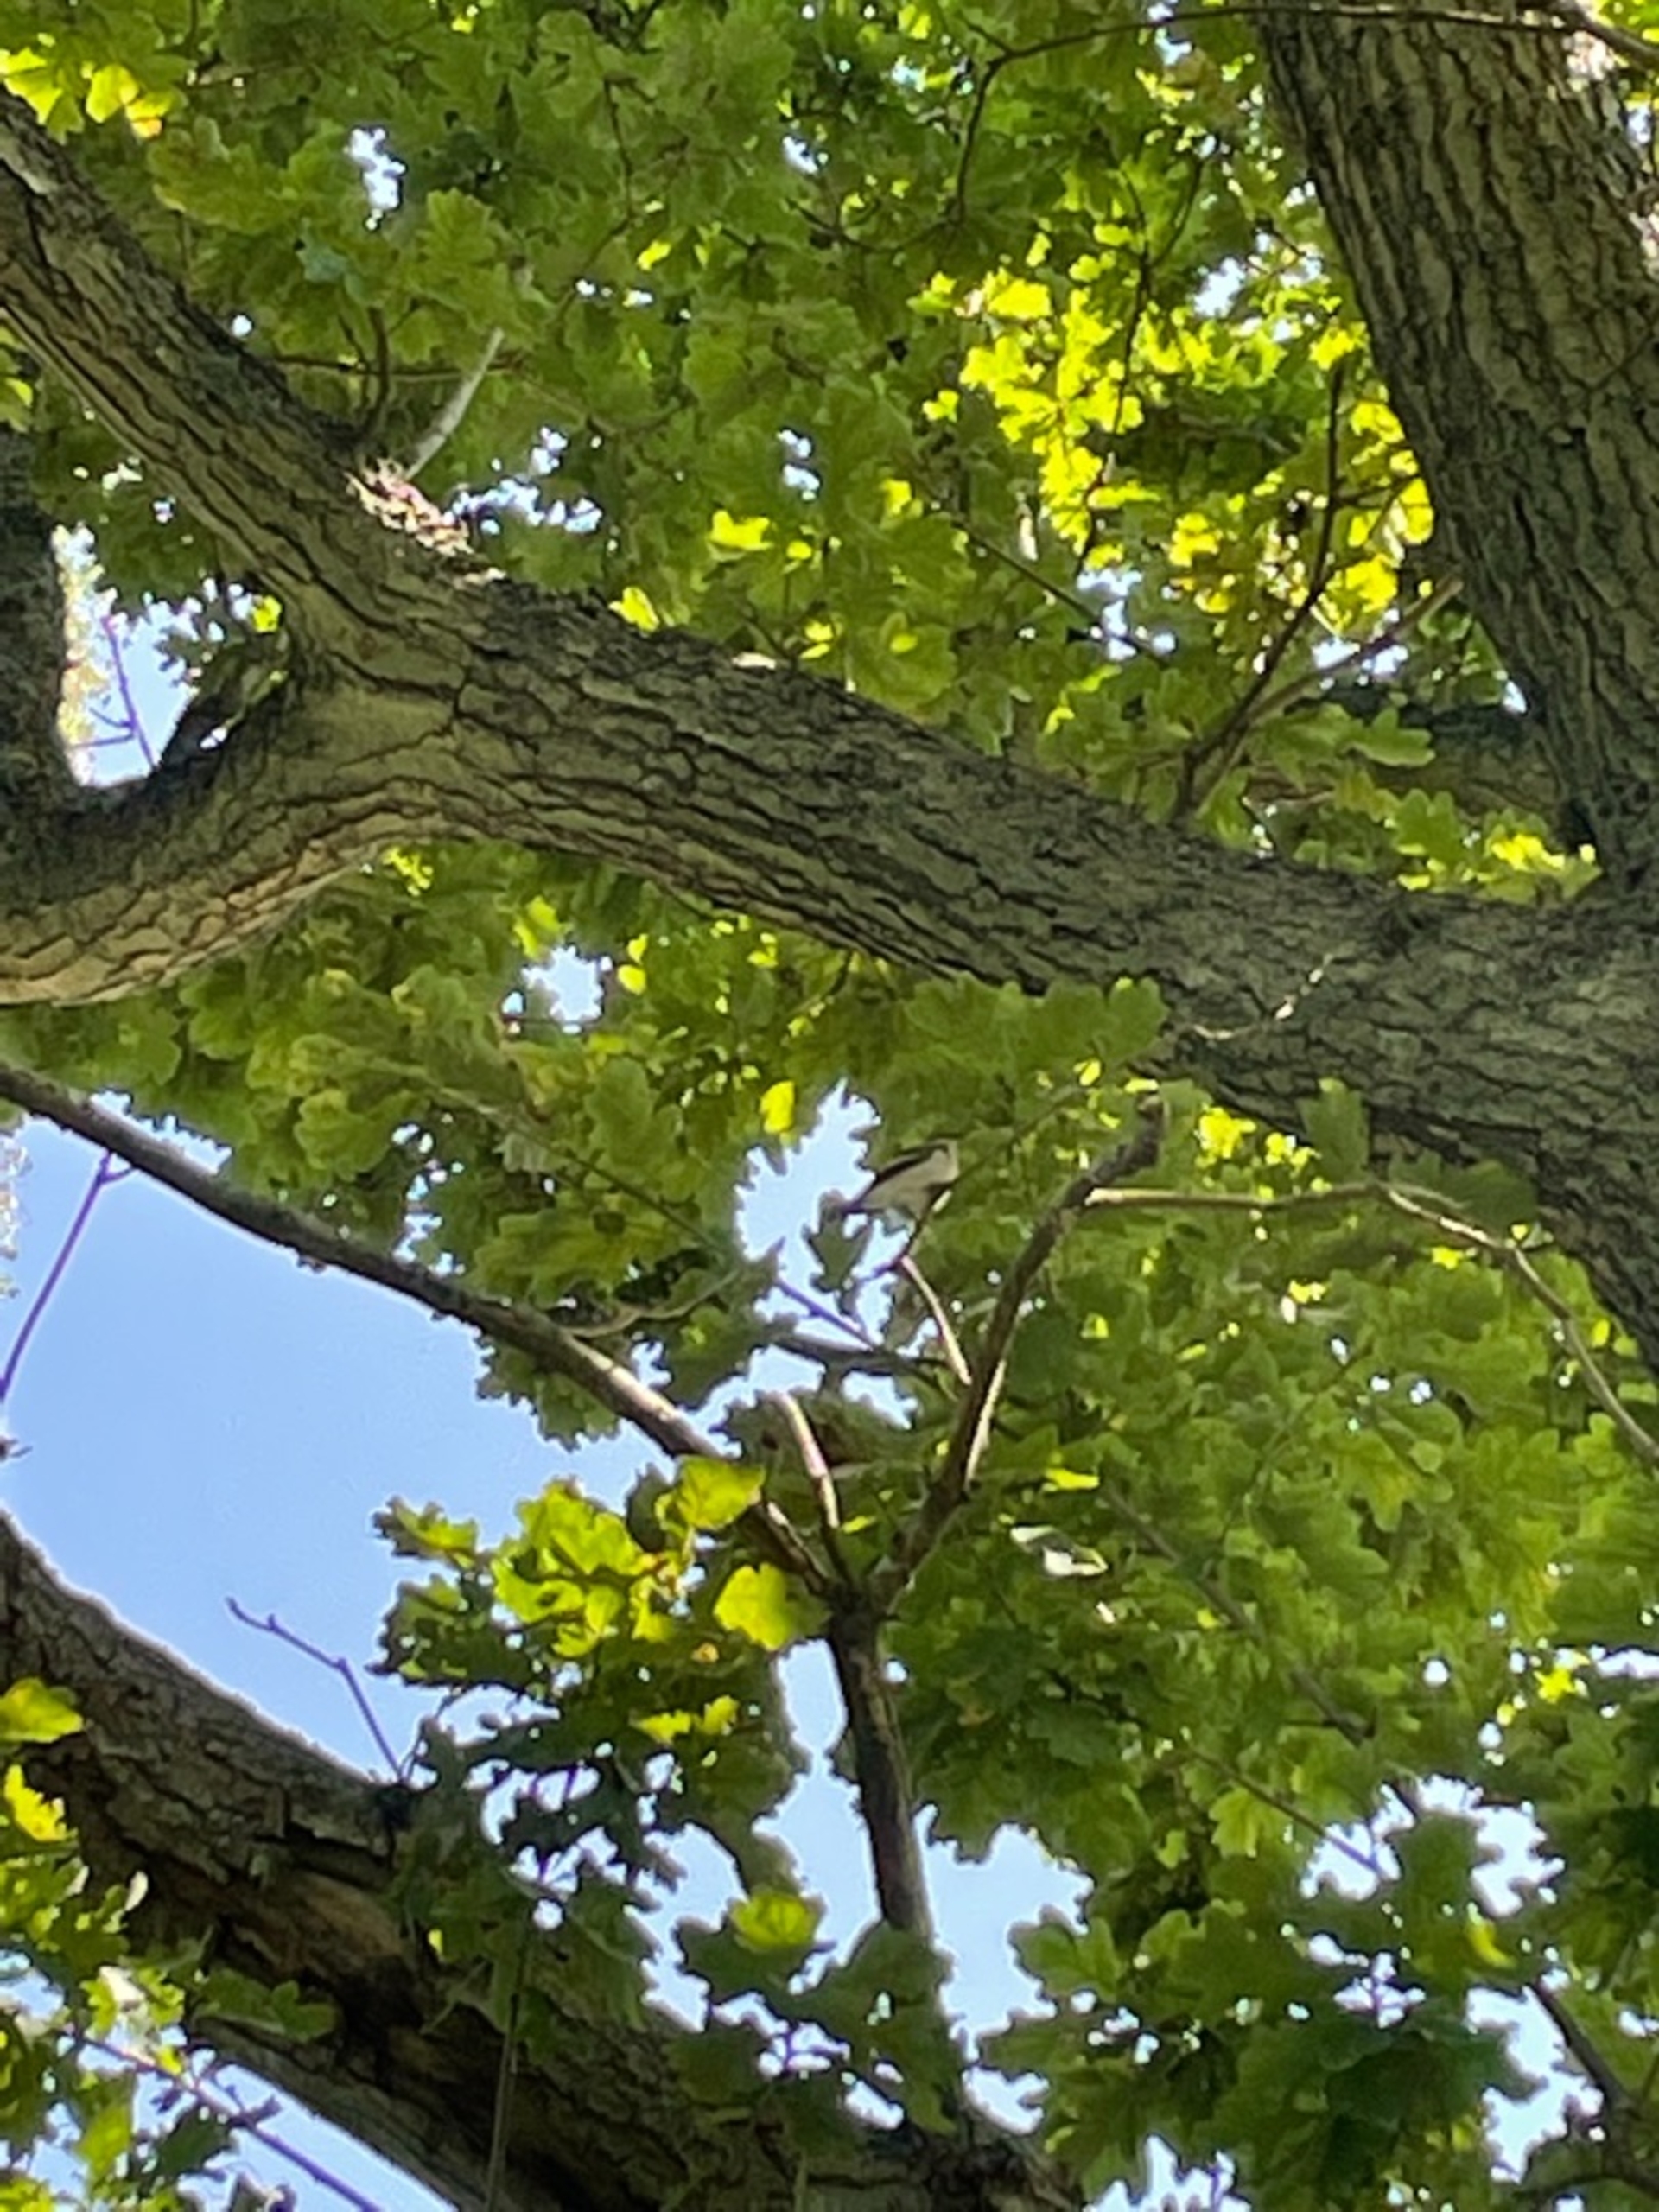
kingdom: Animalia
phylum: Chordata
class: Aves
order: Passeriformes
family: Muscicapidae
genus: Ficedula
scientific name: Ficedula hypoleuca
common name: Broget fluesnapper
